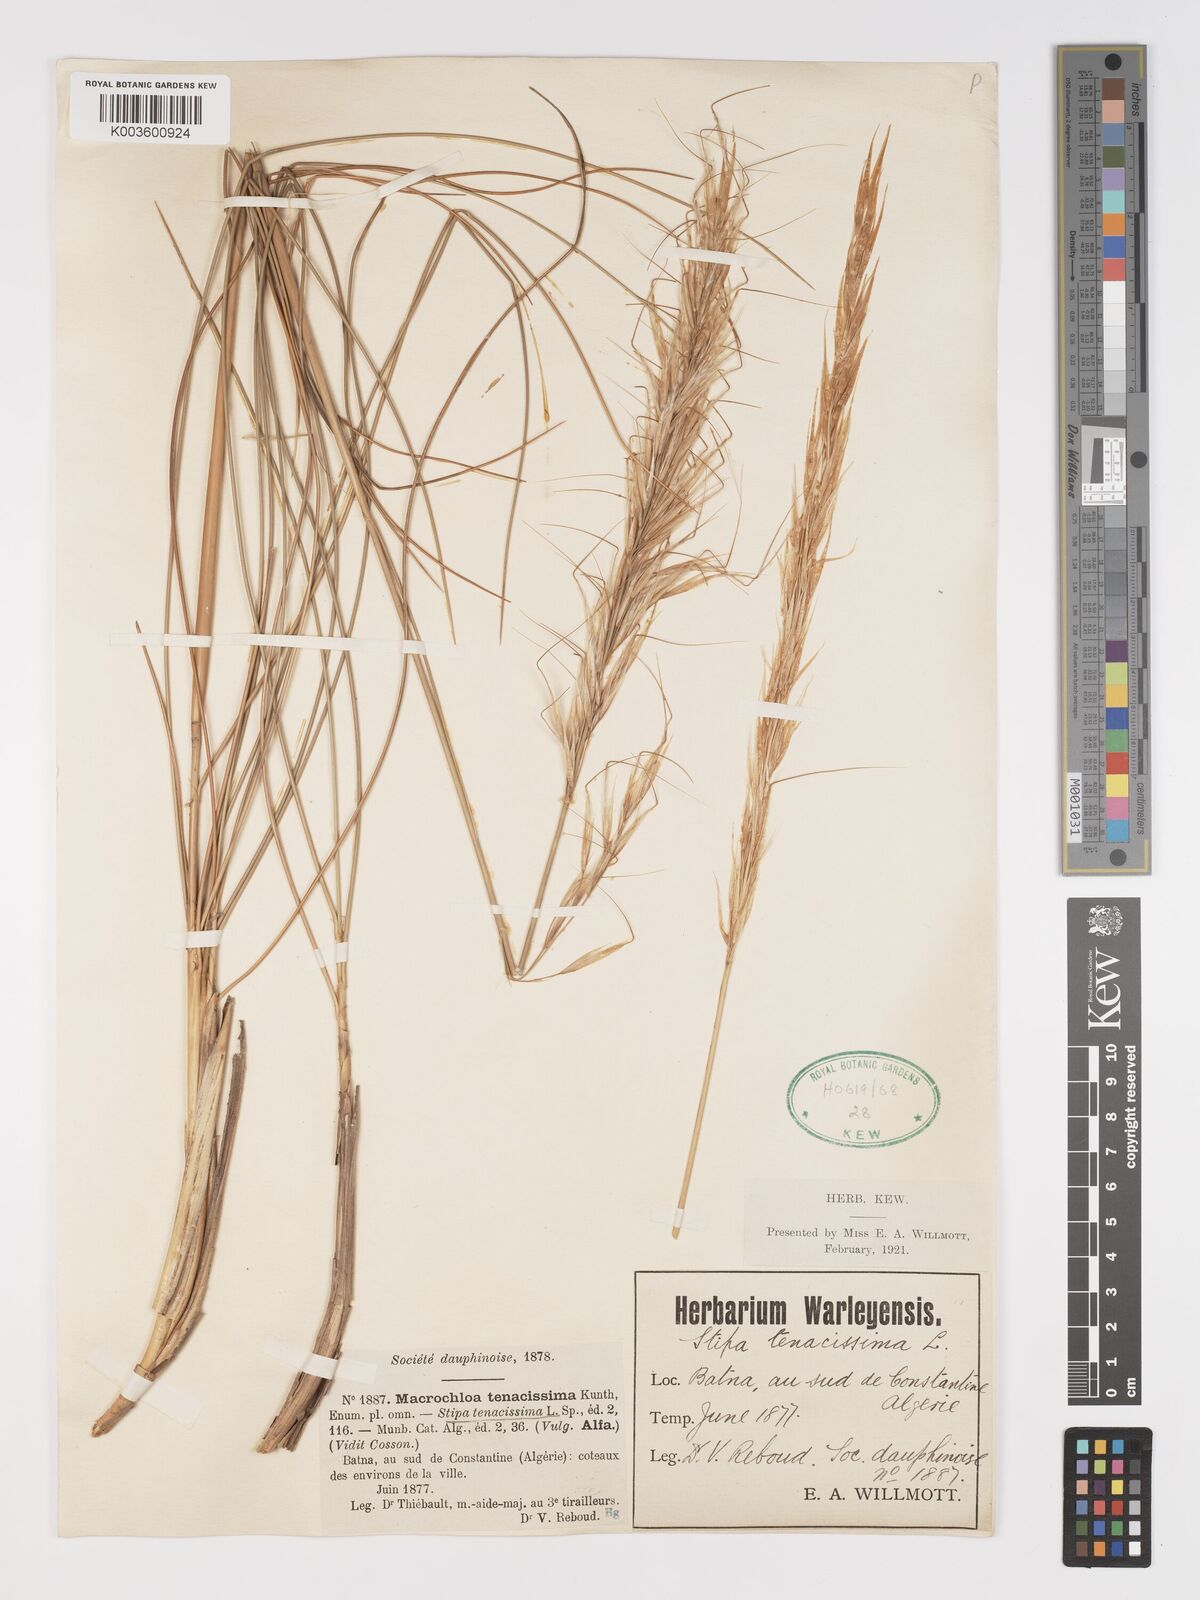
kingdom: Plantae
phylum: Tracheophyta
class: Liliopsida
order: Poales
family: Poaceae
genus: Macrochloa
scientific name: Macrochloa tenacissima
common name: Alfa grass
